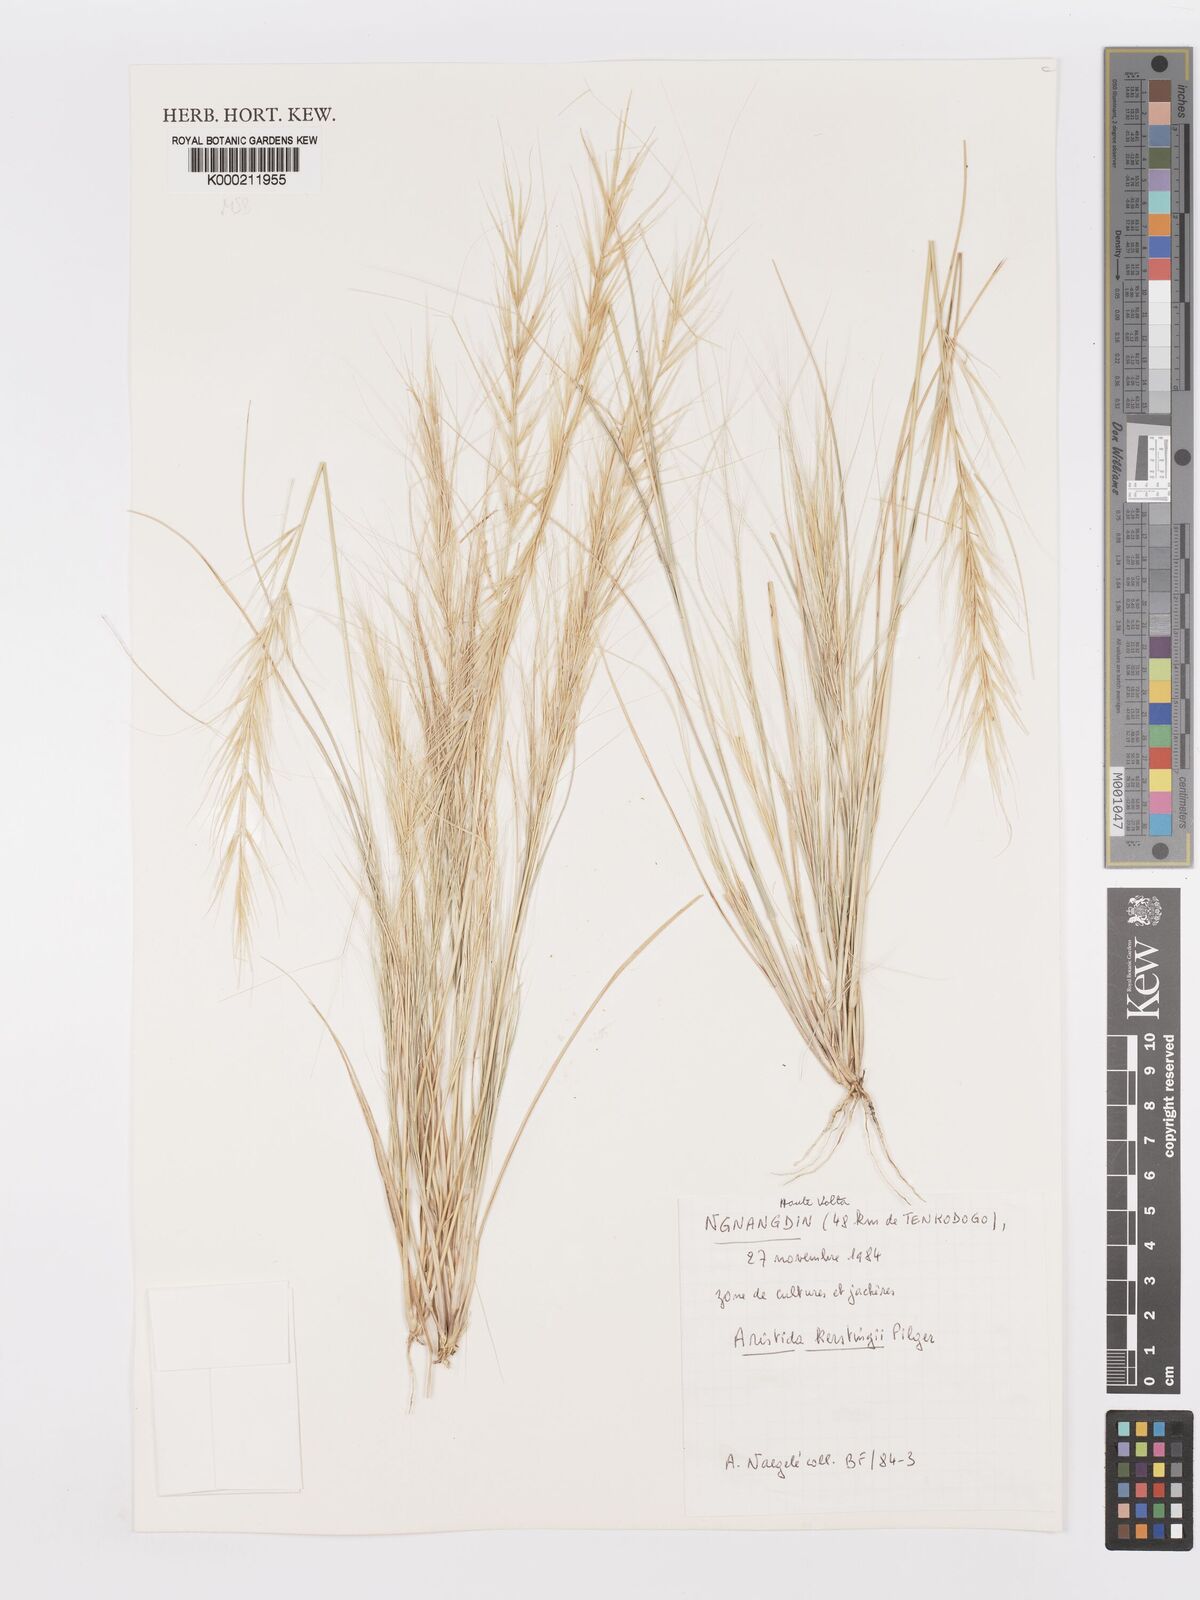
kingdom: Plantae
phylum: Tracheophyta
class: Liliopsida
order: Poales
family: Poaceae
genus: Aristida
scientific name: Aristida kerstingii
